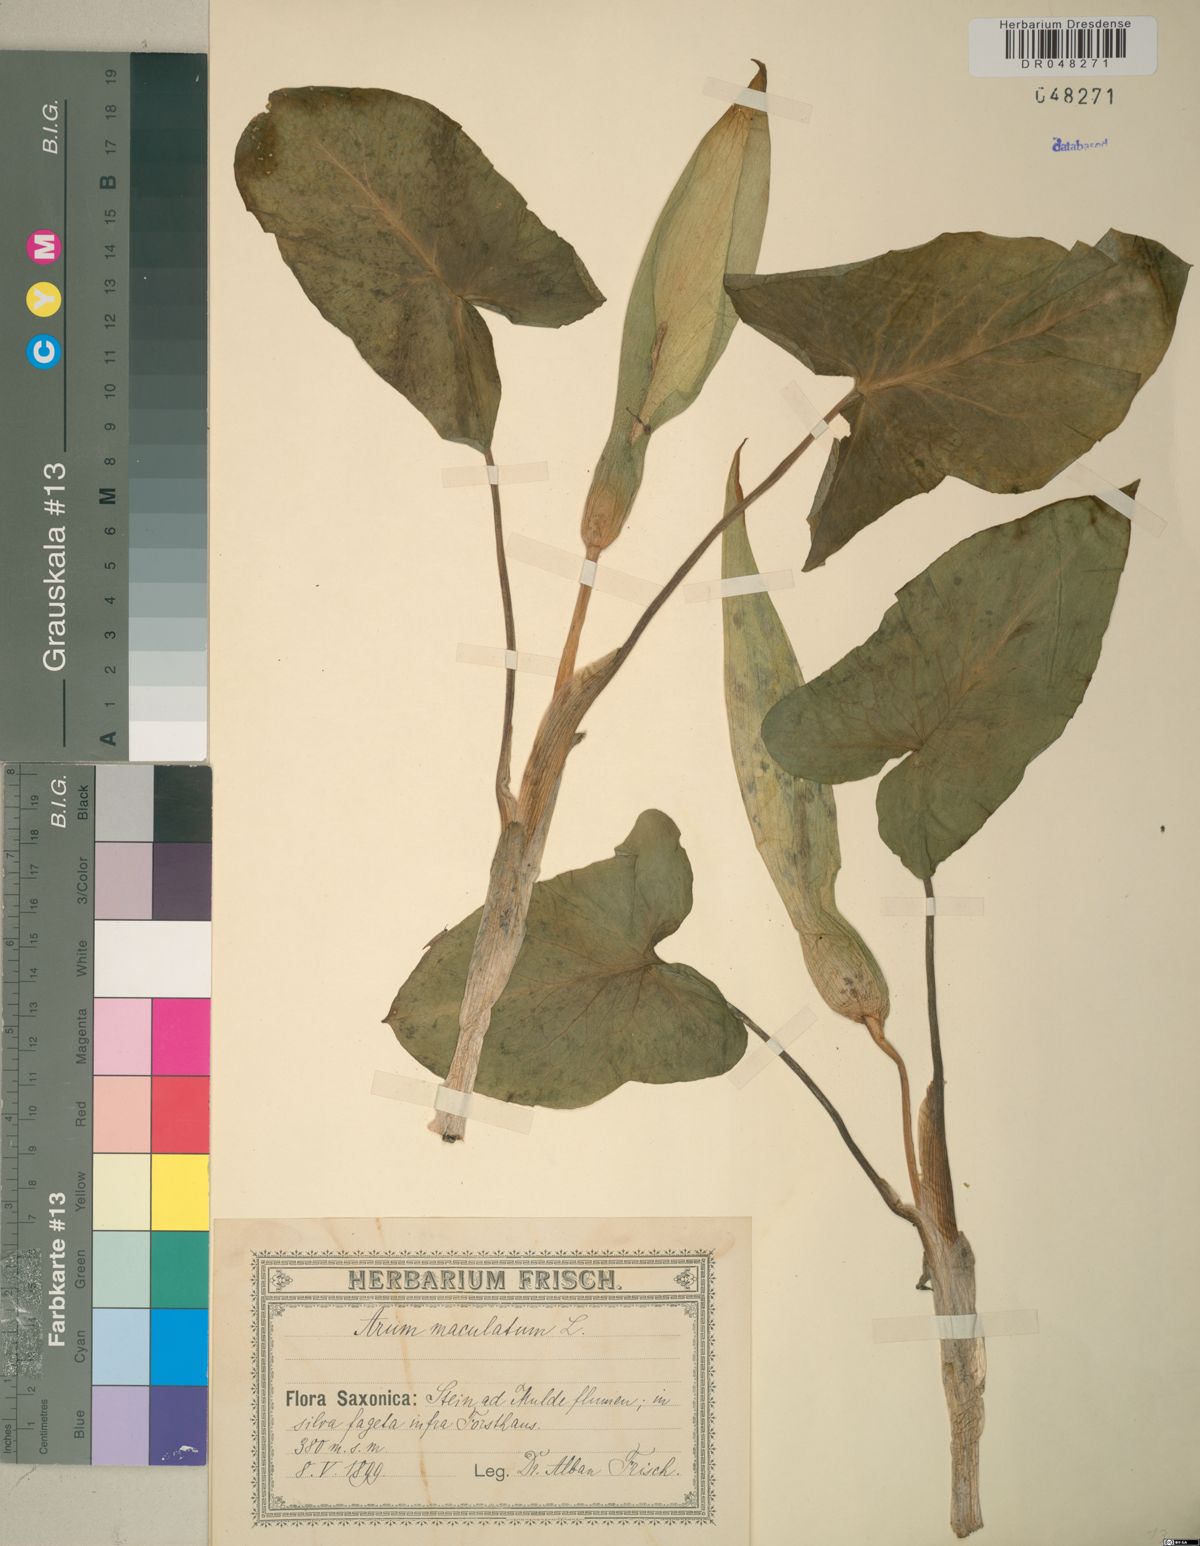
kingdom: Plantae
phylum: Tracheophyta
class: Liliopsida
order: Alismatales
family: Araceae
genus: Arum
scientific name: Arum maculatum
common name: Lords-and-ladies
